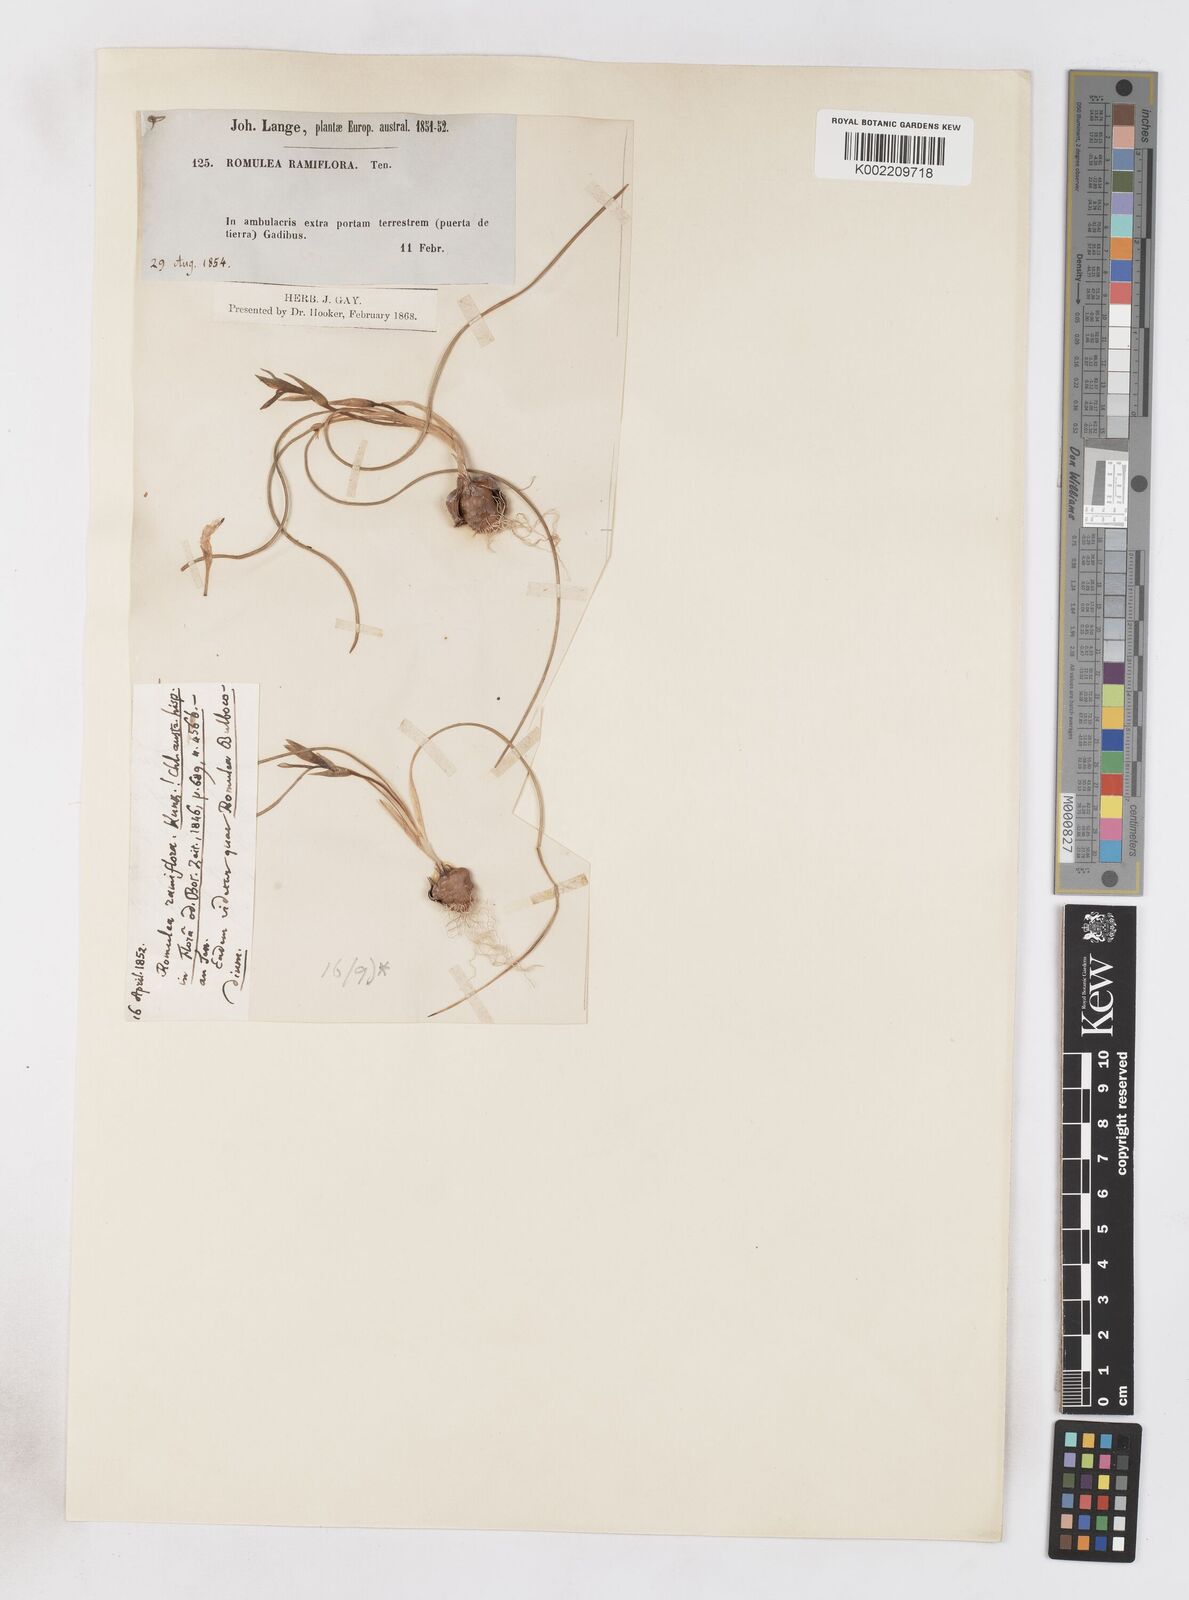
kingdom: Plantae
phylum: Tracheophyta
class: Liliopsida
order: Asparagales
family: Iridaceae
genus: Romulea
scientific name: Romulea ramiflora
